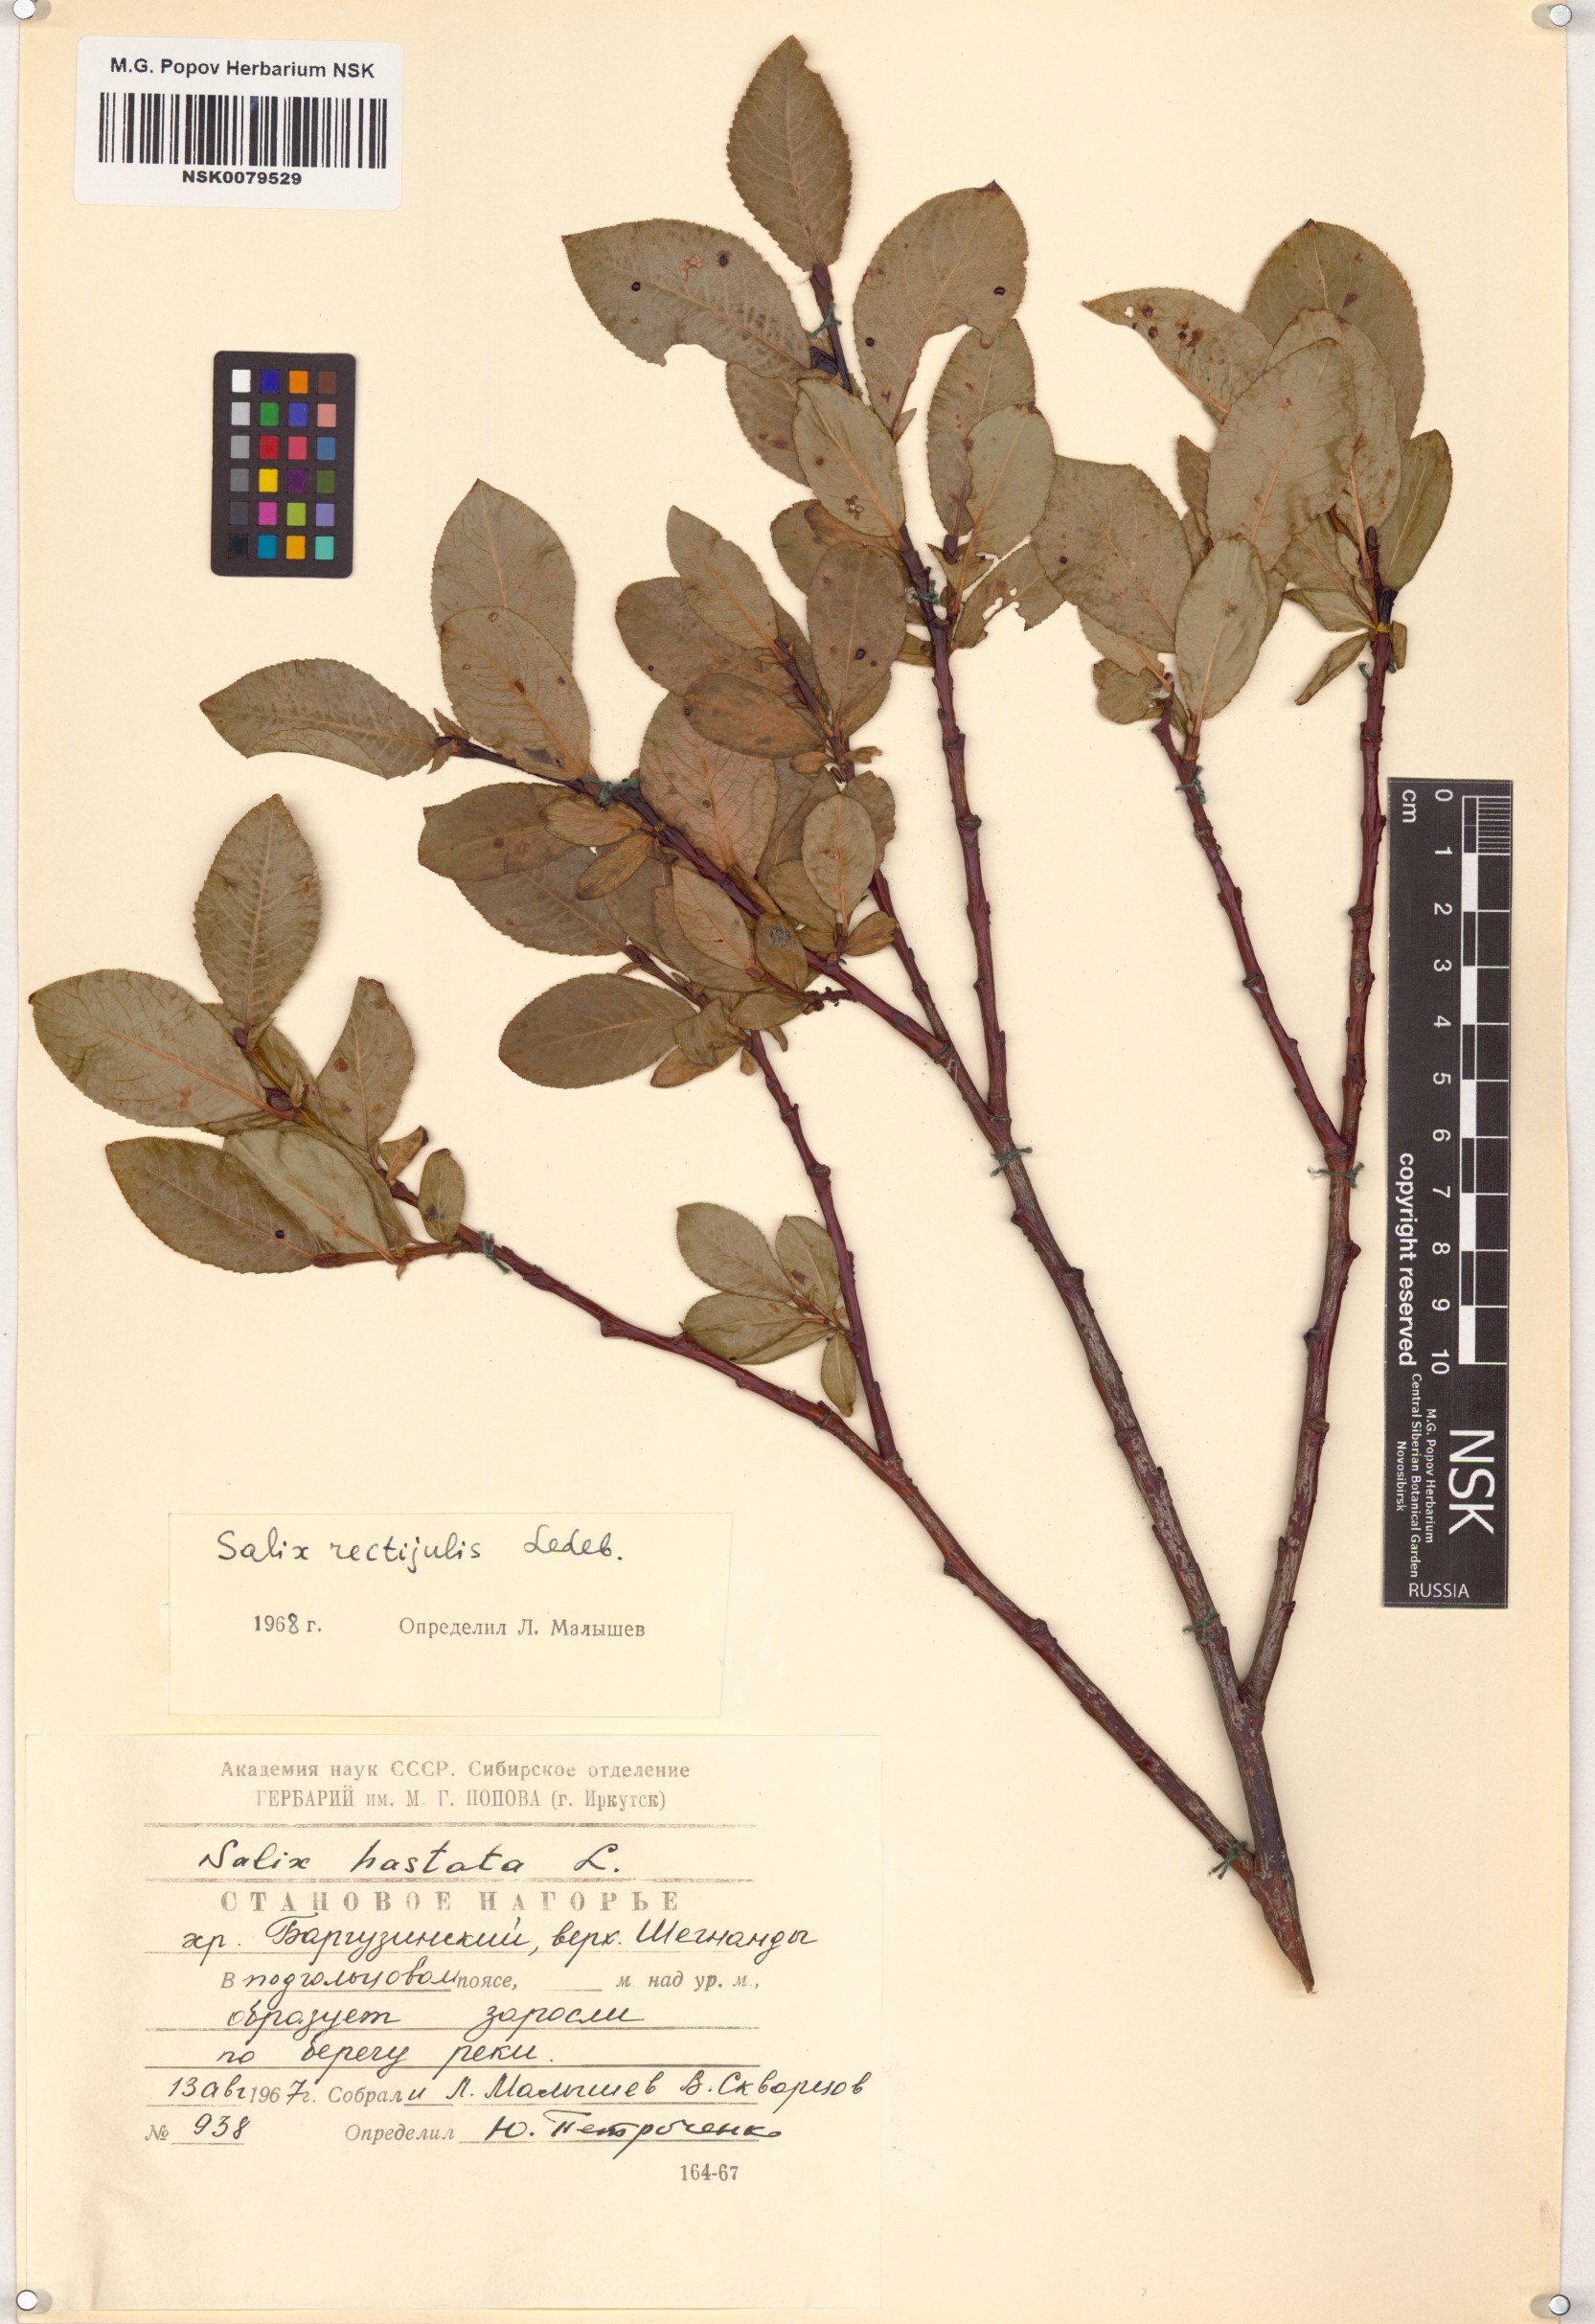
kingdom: Plantae
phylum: Tracheophyta
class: Magnoliopsida
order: Malpighiales
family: Salicaceae
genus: Salix
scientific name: Salix rectijulis
